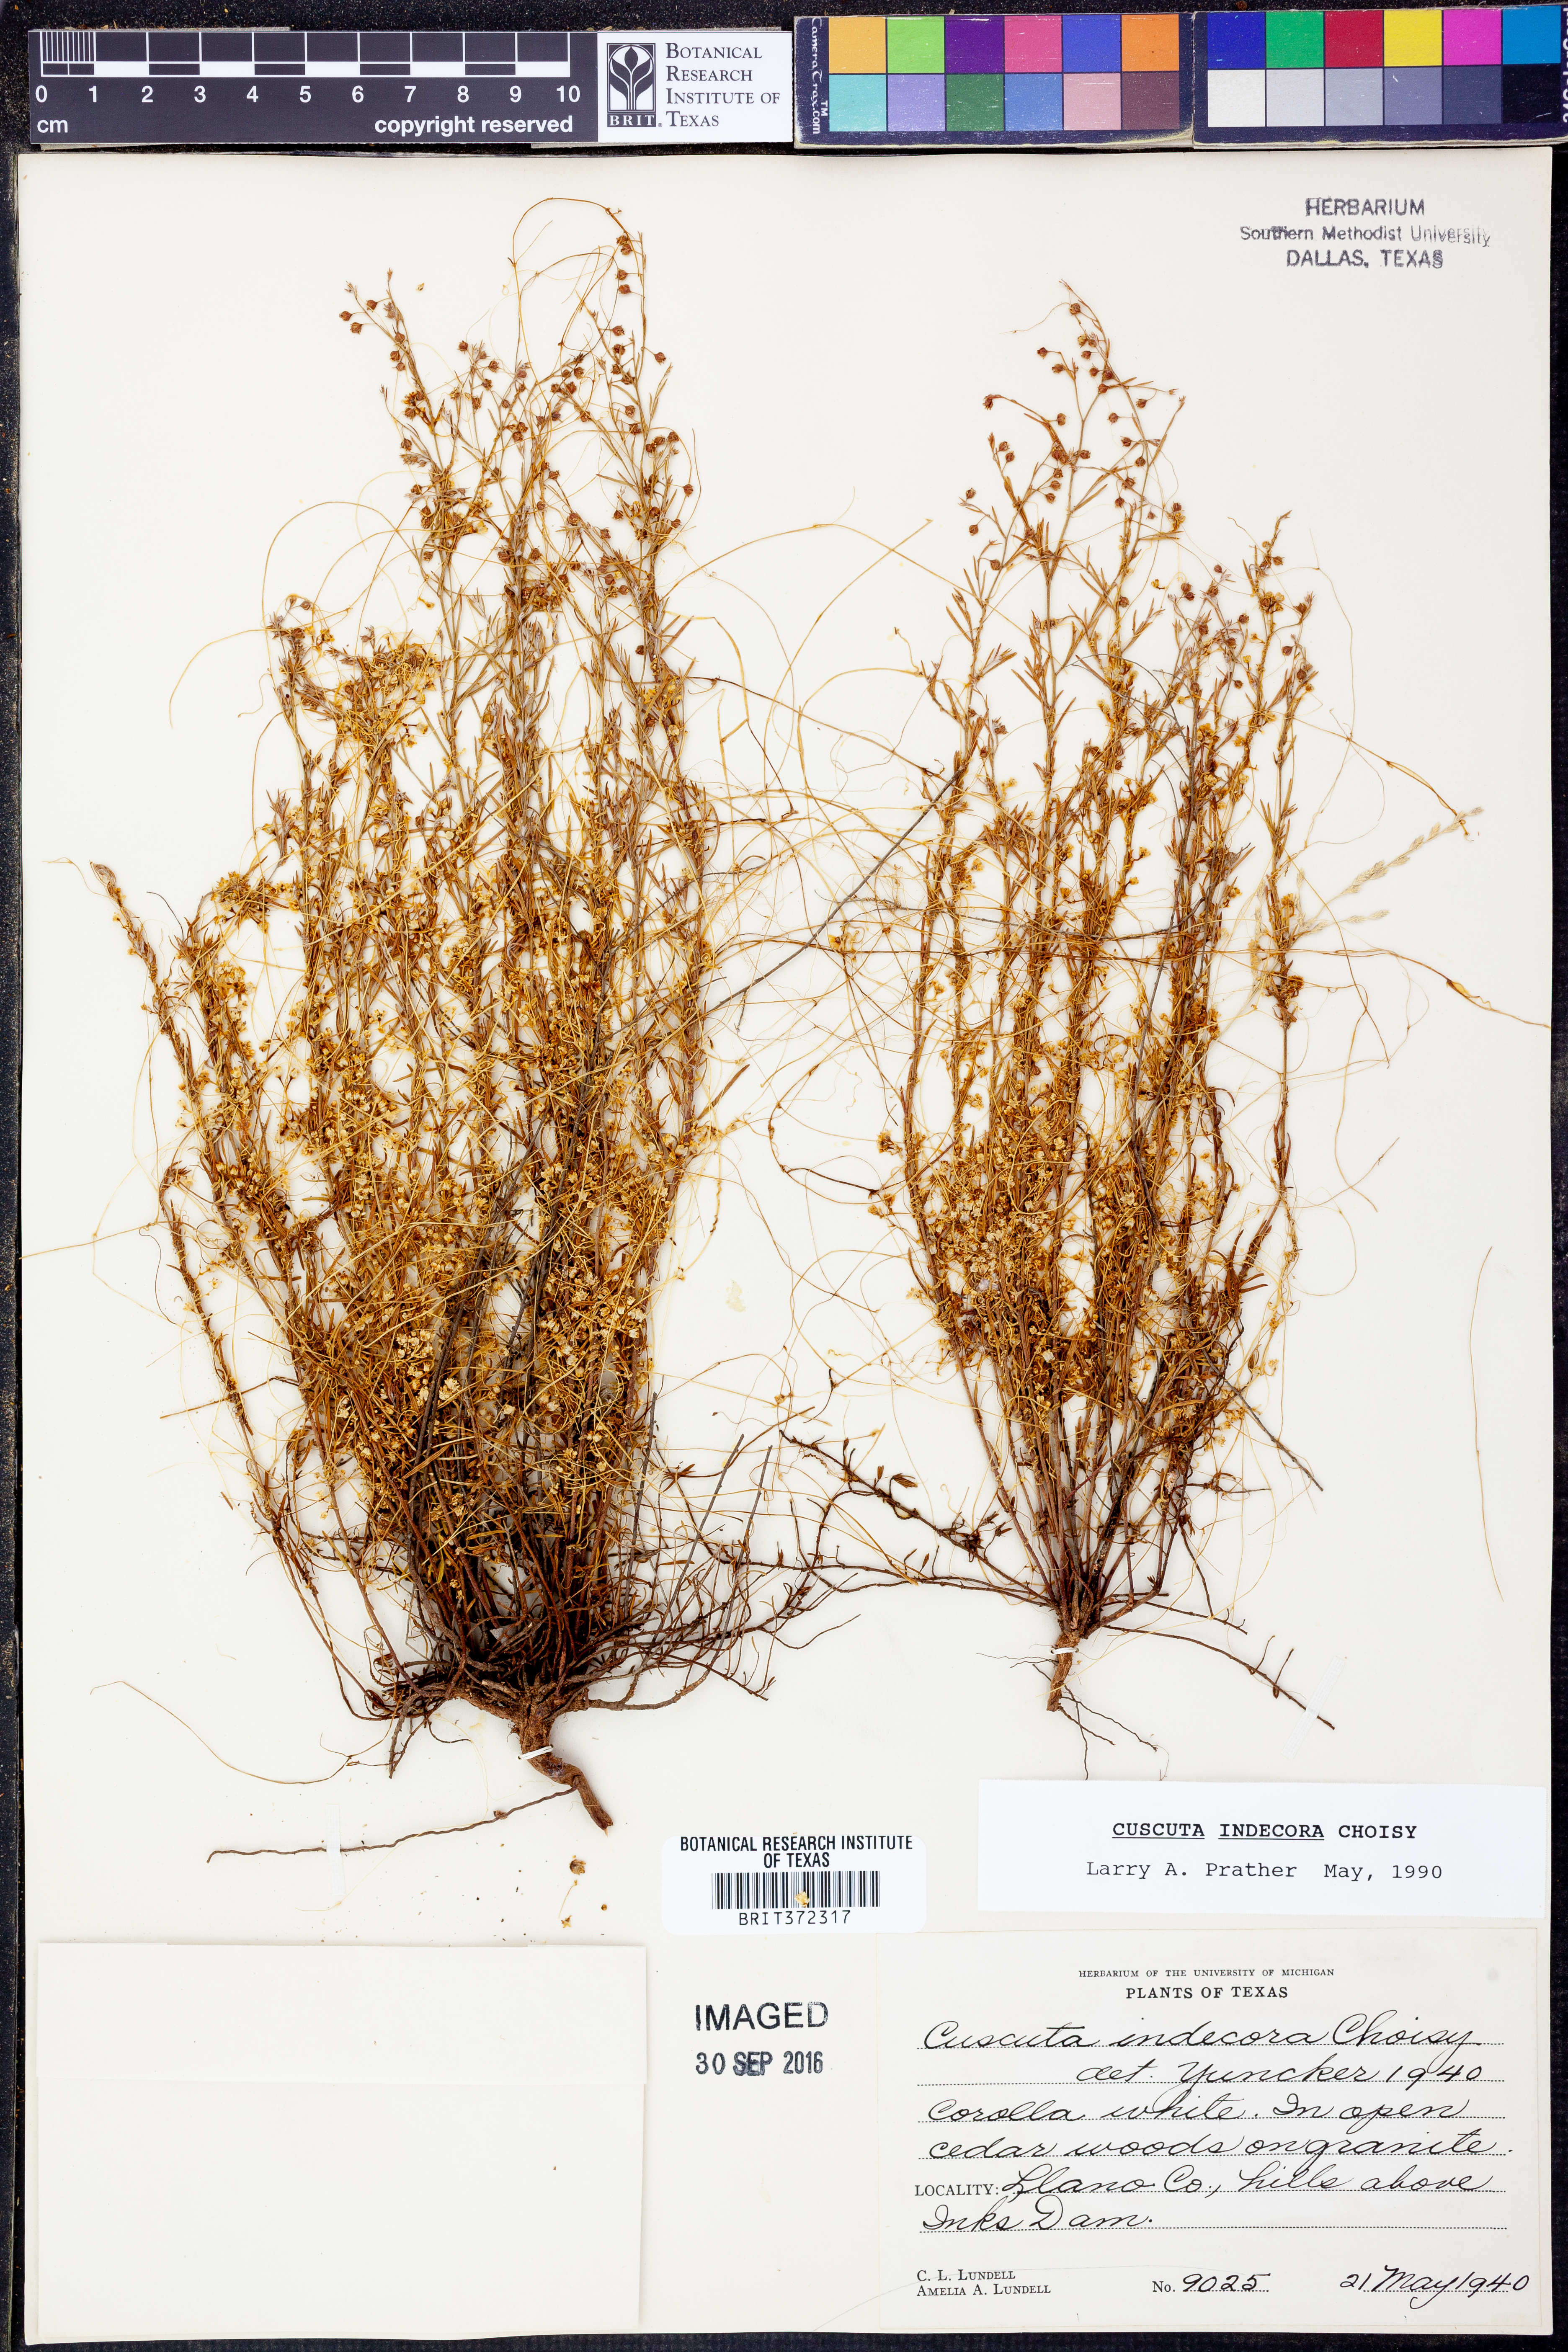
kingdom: Plantae
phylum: Tracheophyta
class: Magnoliopsida
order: Solanales
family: Convolvulaceae
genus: Cuscuta
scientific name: Cuscuta indecora
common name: Large-seed dodder
